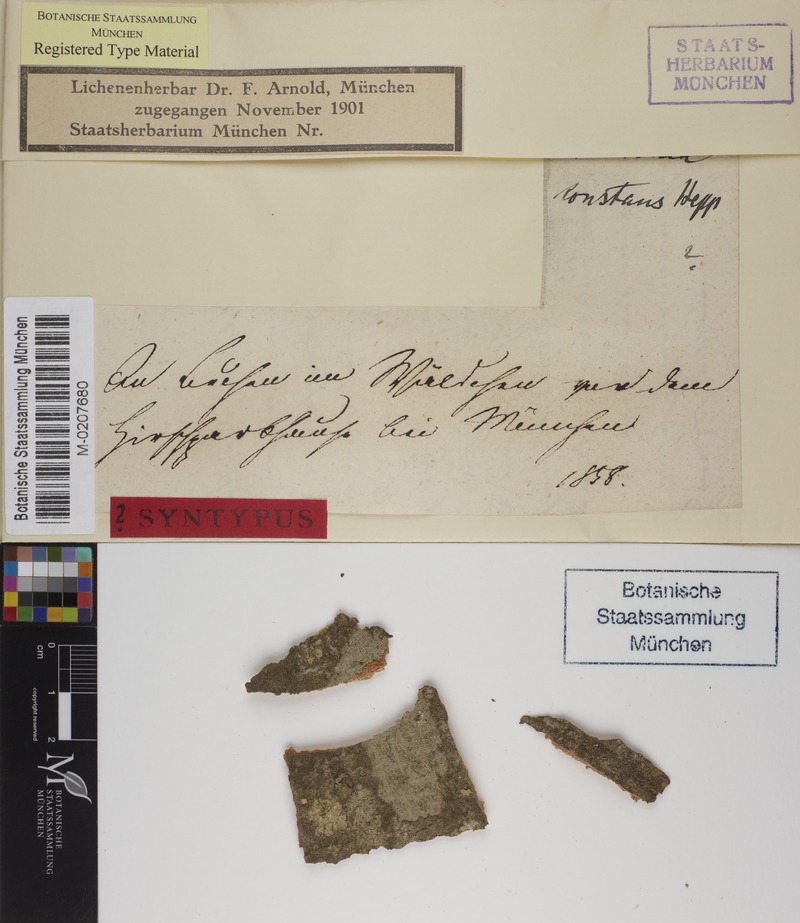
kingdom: Fungi
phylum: Ascomycota
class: Lecanoromycetes
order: Umbilicariales
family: Fuscideaceae
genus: Maronea
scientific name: Maronea constans
